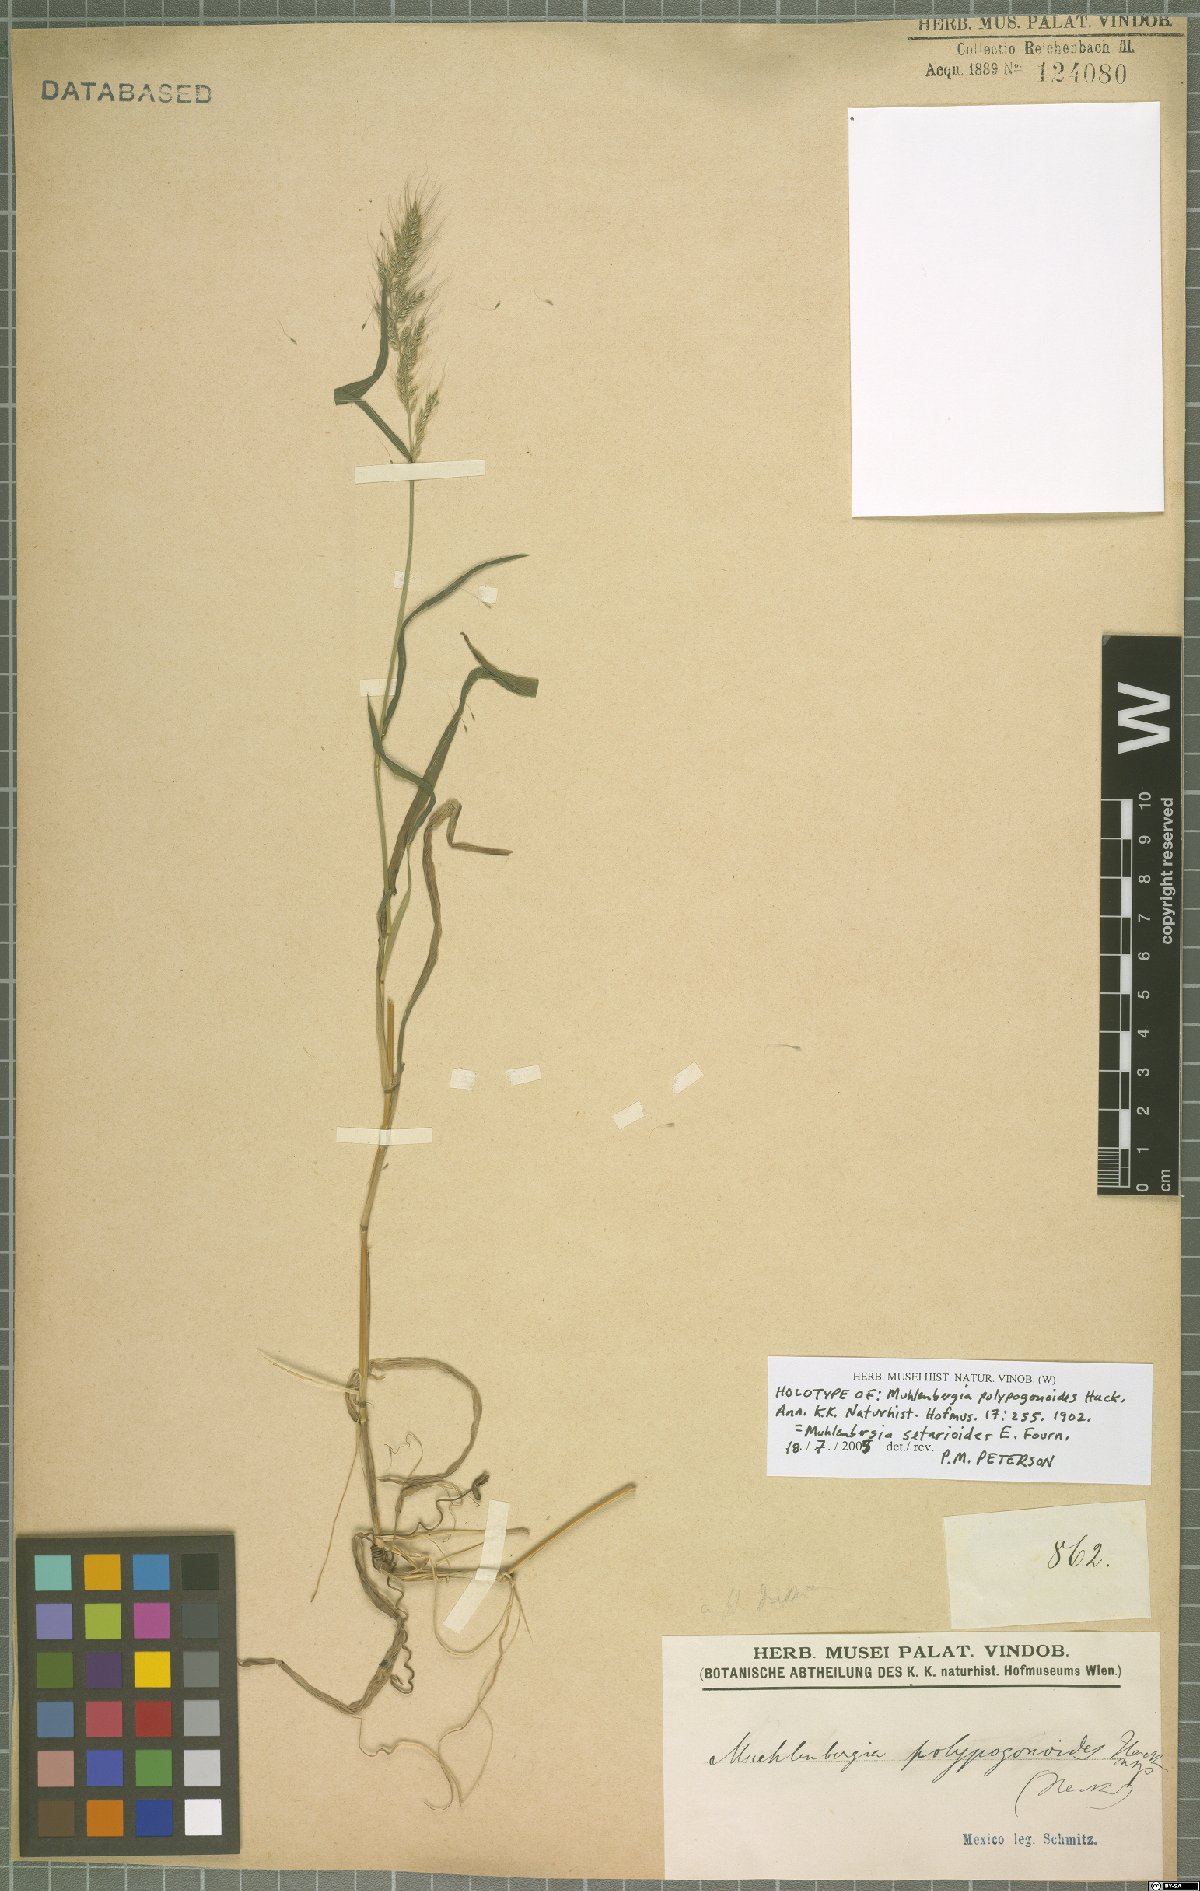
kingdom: Plantae
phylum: Tracheophyta
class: Liliopsida
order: Poales
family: Poaceae
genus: Muhlenbergia
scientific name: Muhlenbergia setarioides
